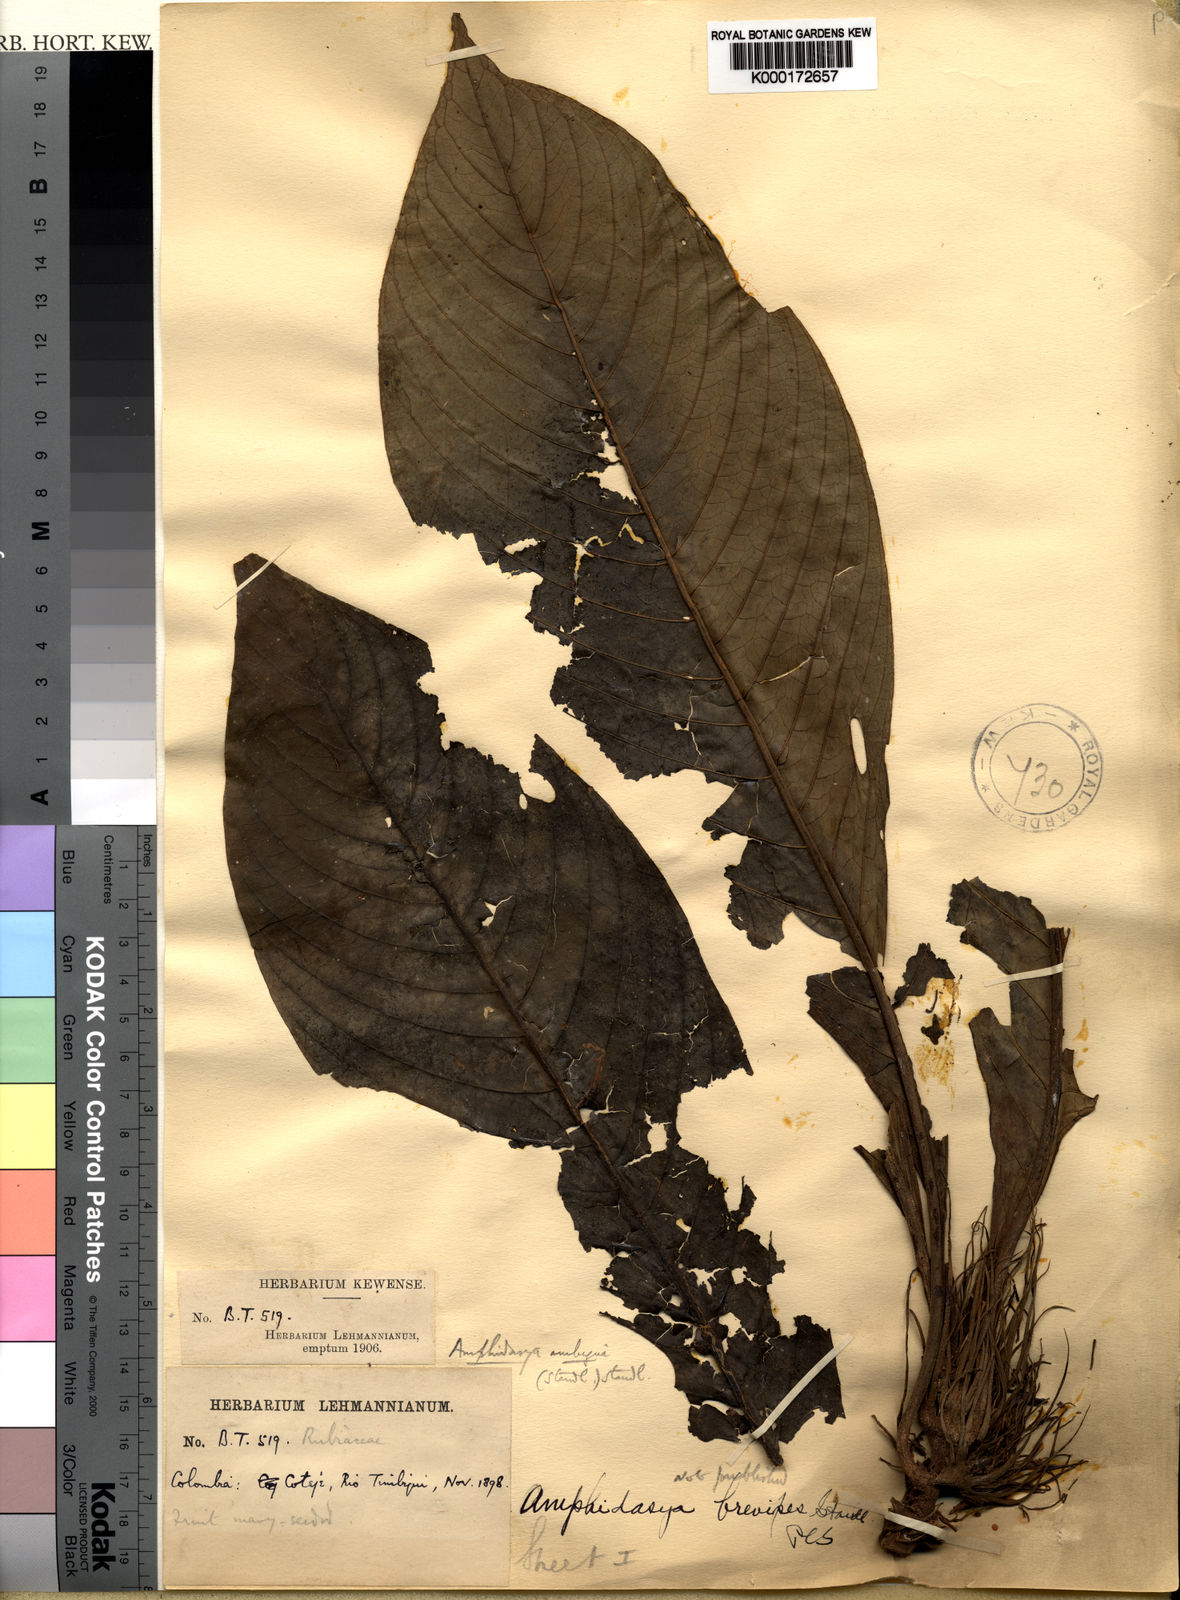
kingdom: Plantae
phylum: Tracheophyta
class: Magnoliopsida
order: Gentianales
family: Rubiaceae
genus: Amphidasya
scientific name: Amphidasya ambigua
